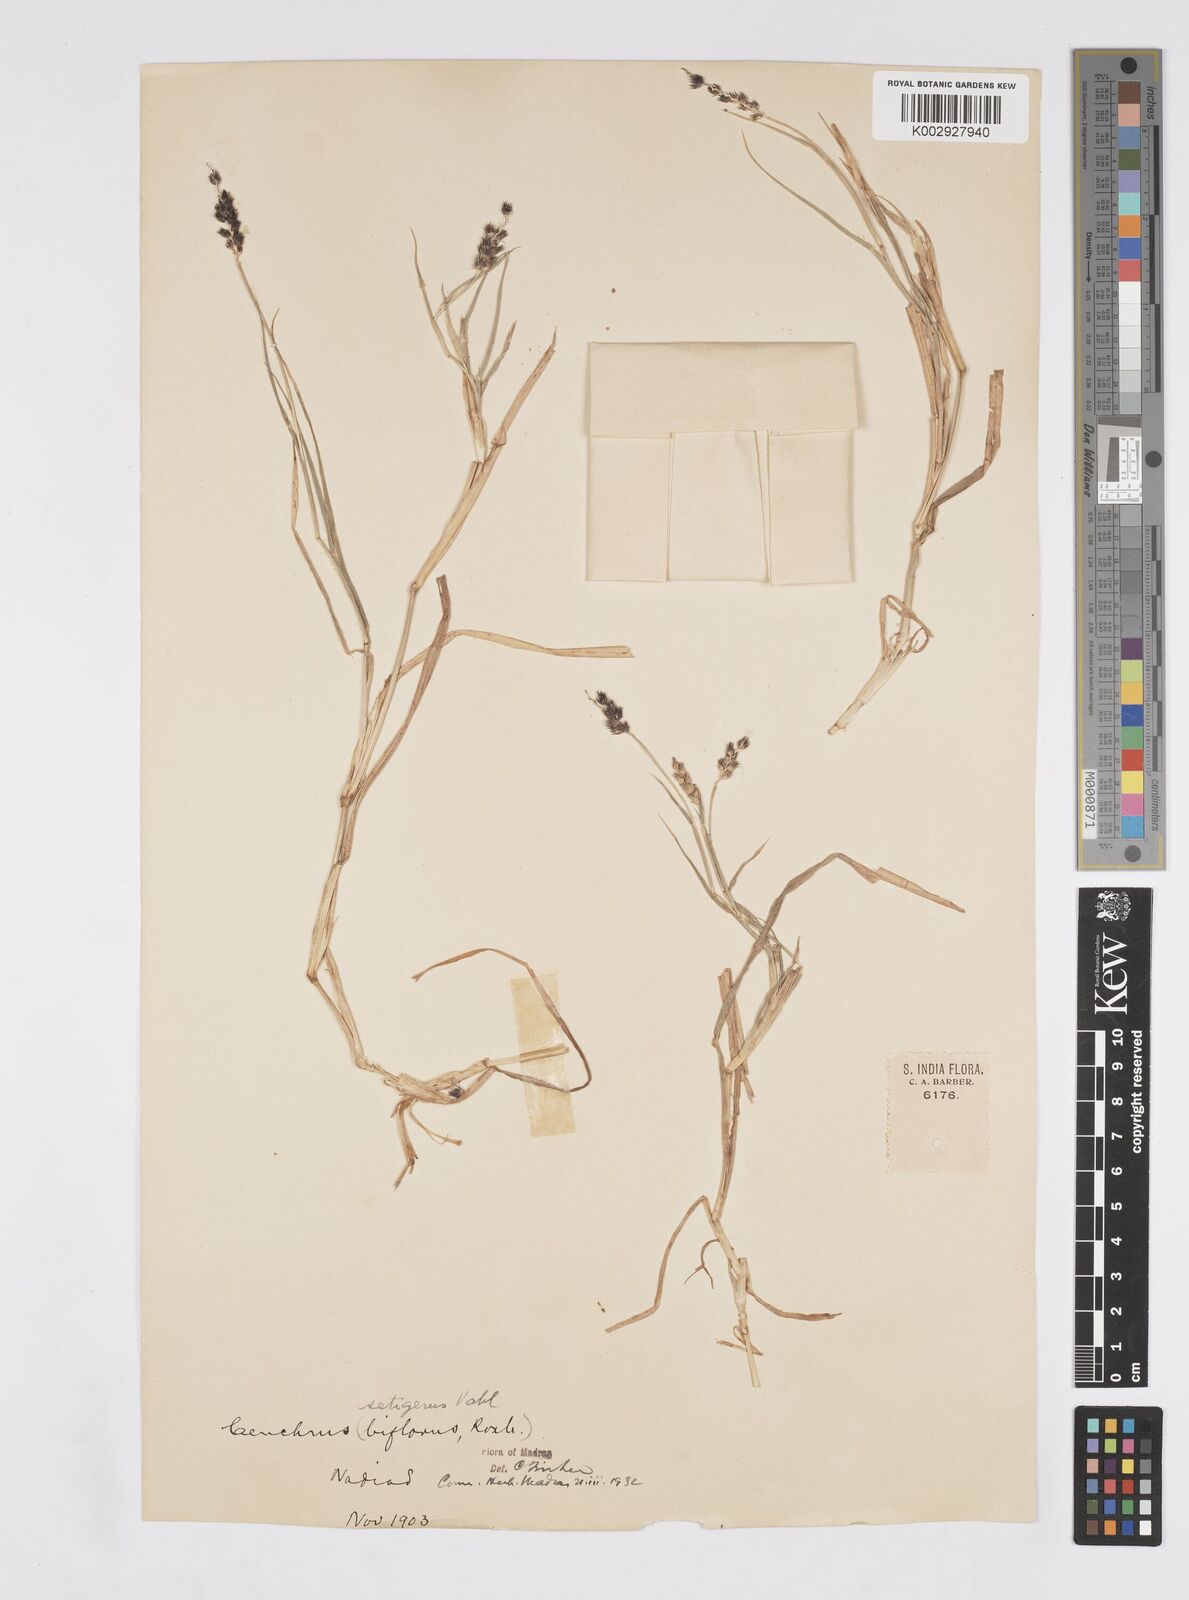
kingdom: Plantae
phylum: Tracheophyta
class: Liliopsida
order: Poales
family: Poaceae
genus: Cenchrus
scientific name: Cenchrus setigerus
